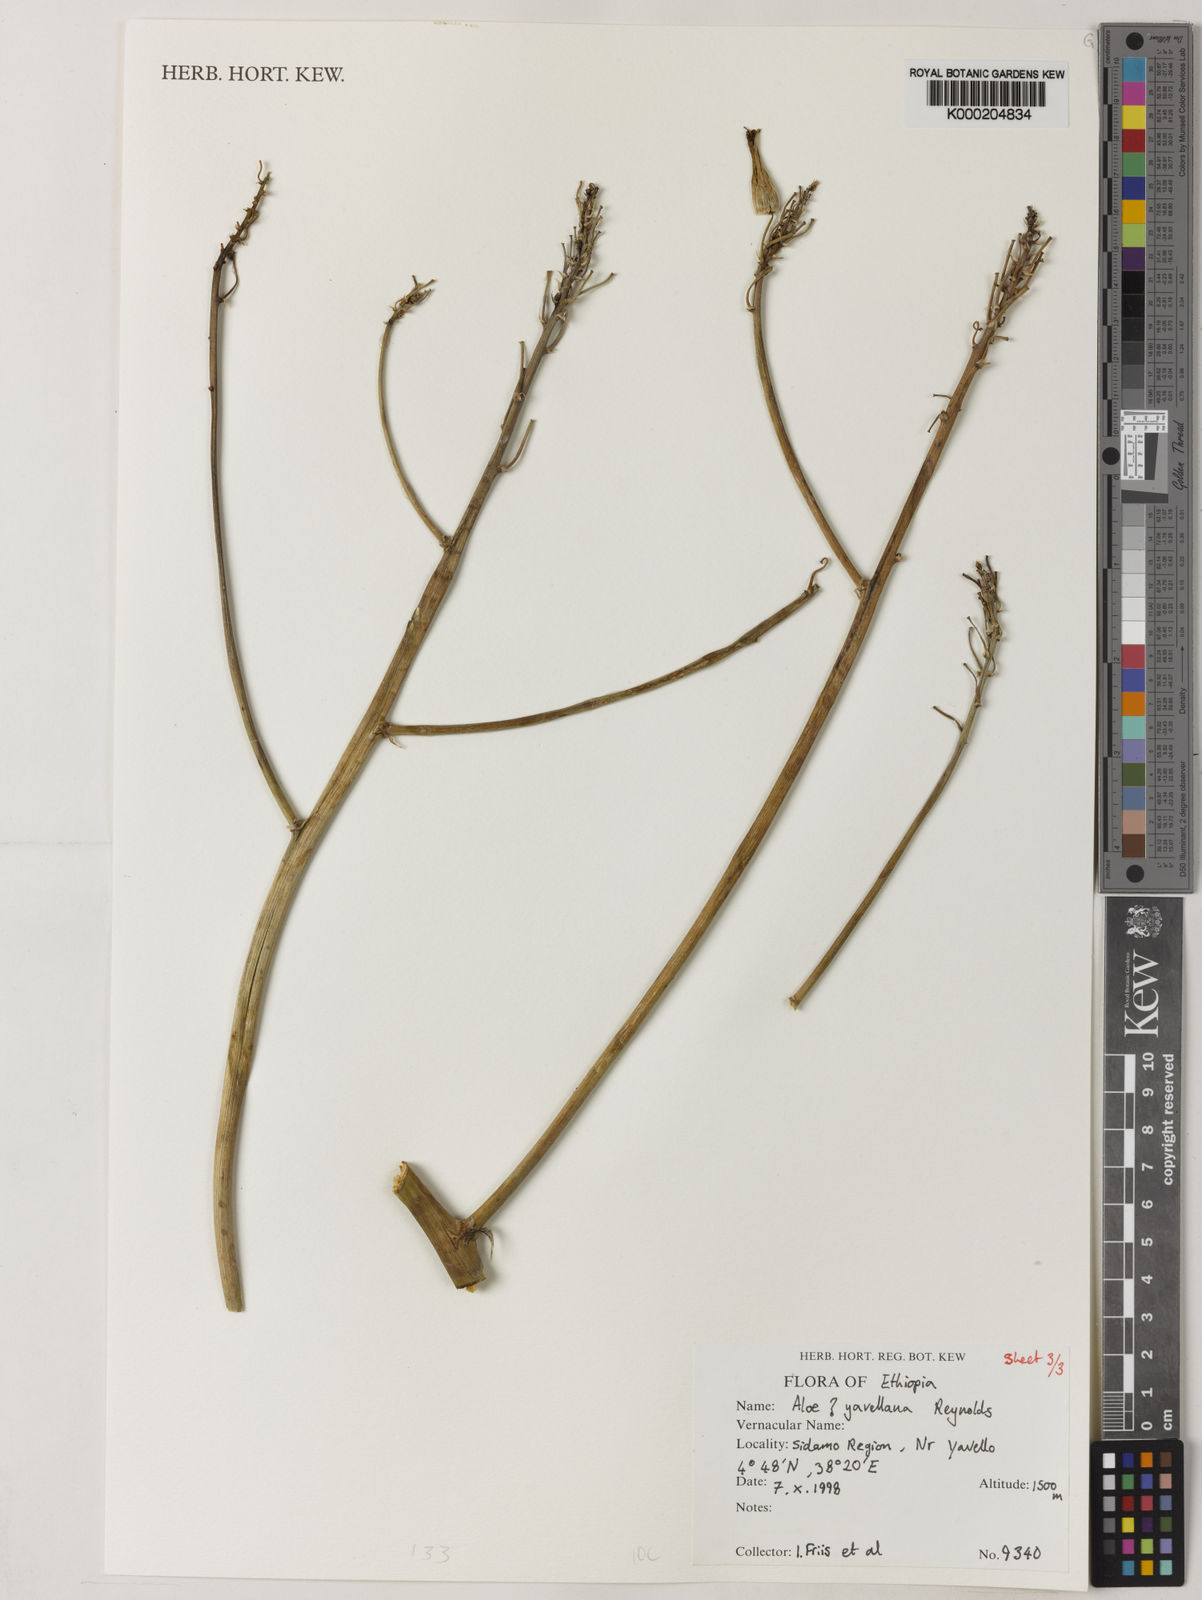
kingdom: Plantae
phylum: Tracheophyta
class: Liliopsida
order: Asparagales
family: Asphodelaceae
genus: Aloe
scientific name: Aloe yavellana
